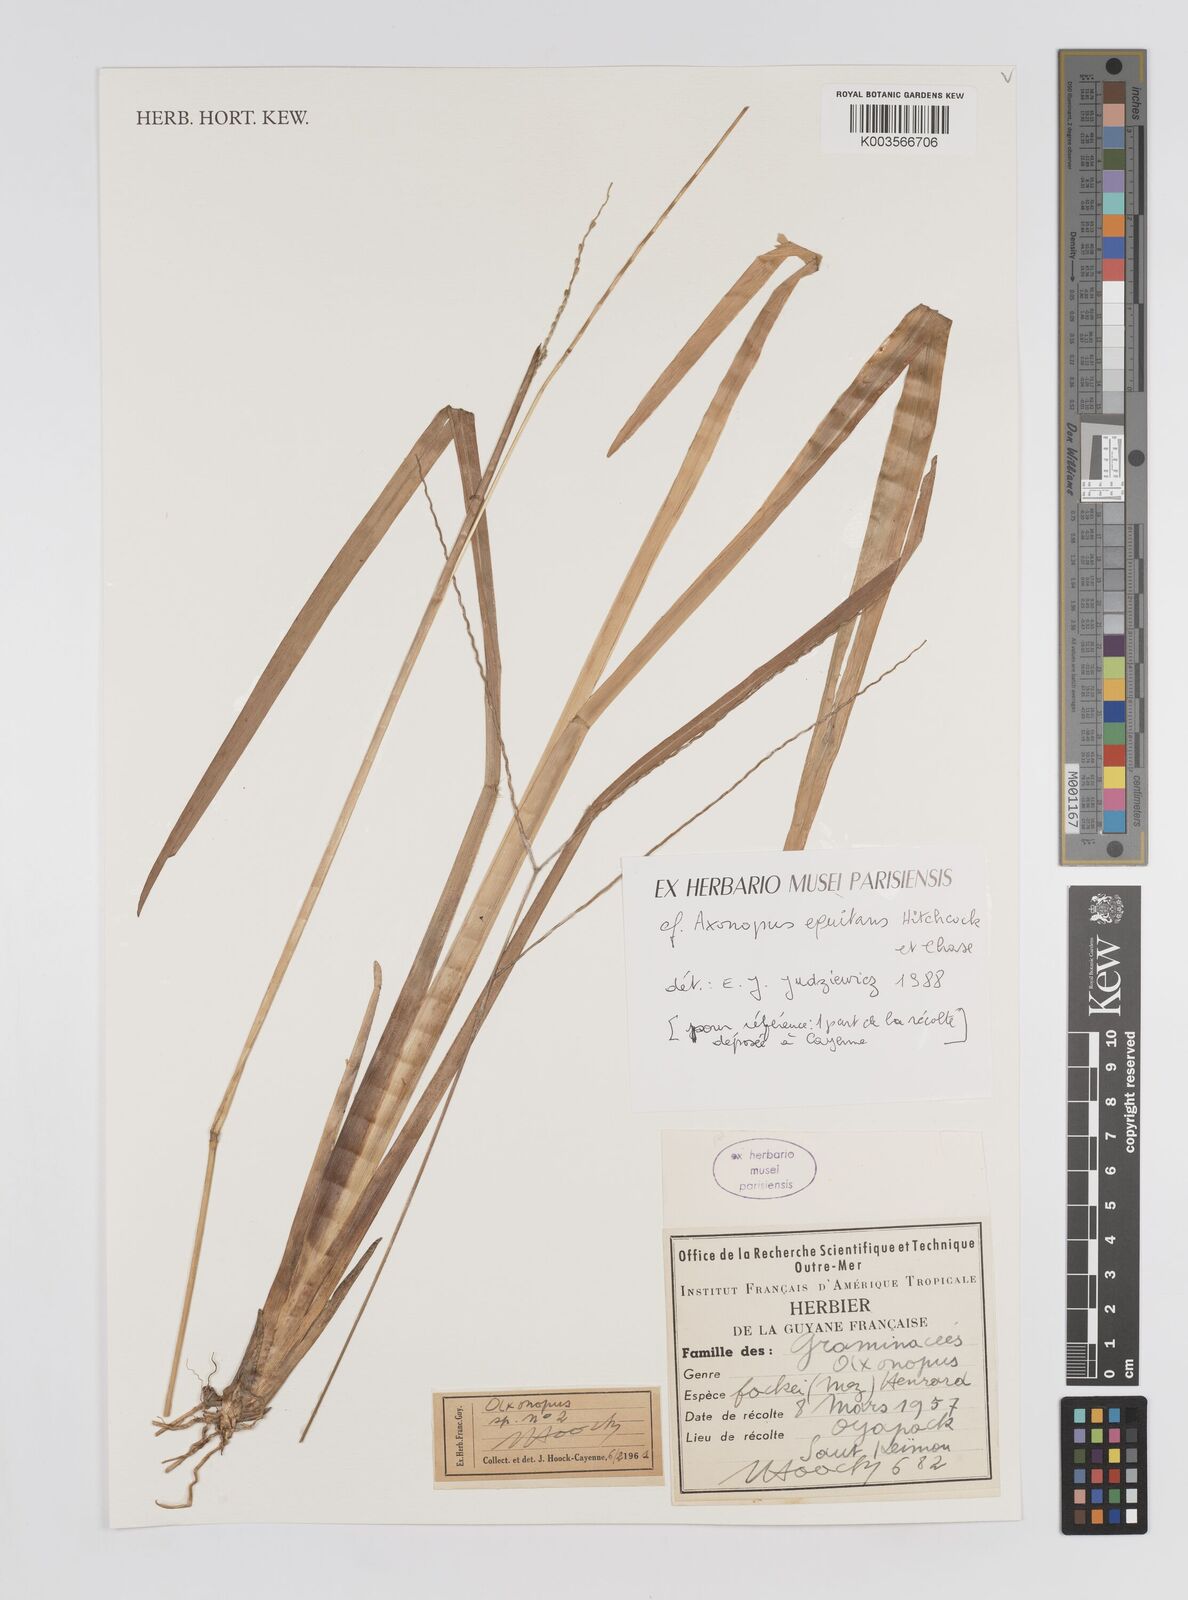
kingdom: Plantae
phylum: Tracheophyta
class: Liliopsida
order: Poales
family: Poaceae
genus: Axonopus
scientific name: Axonopus equitans
